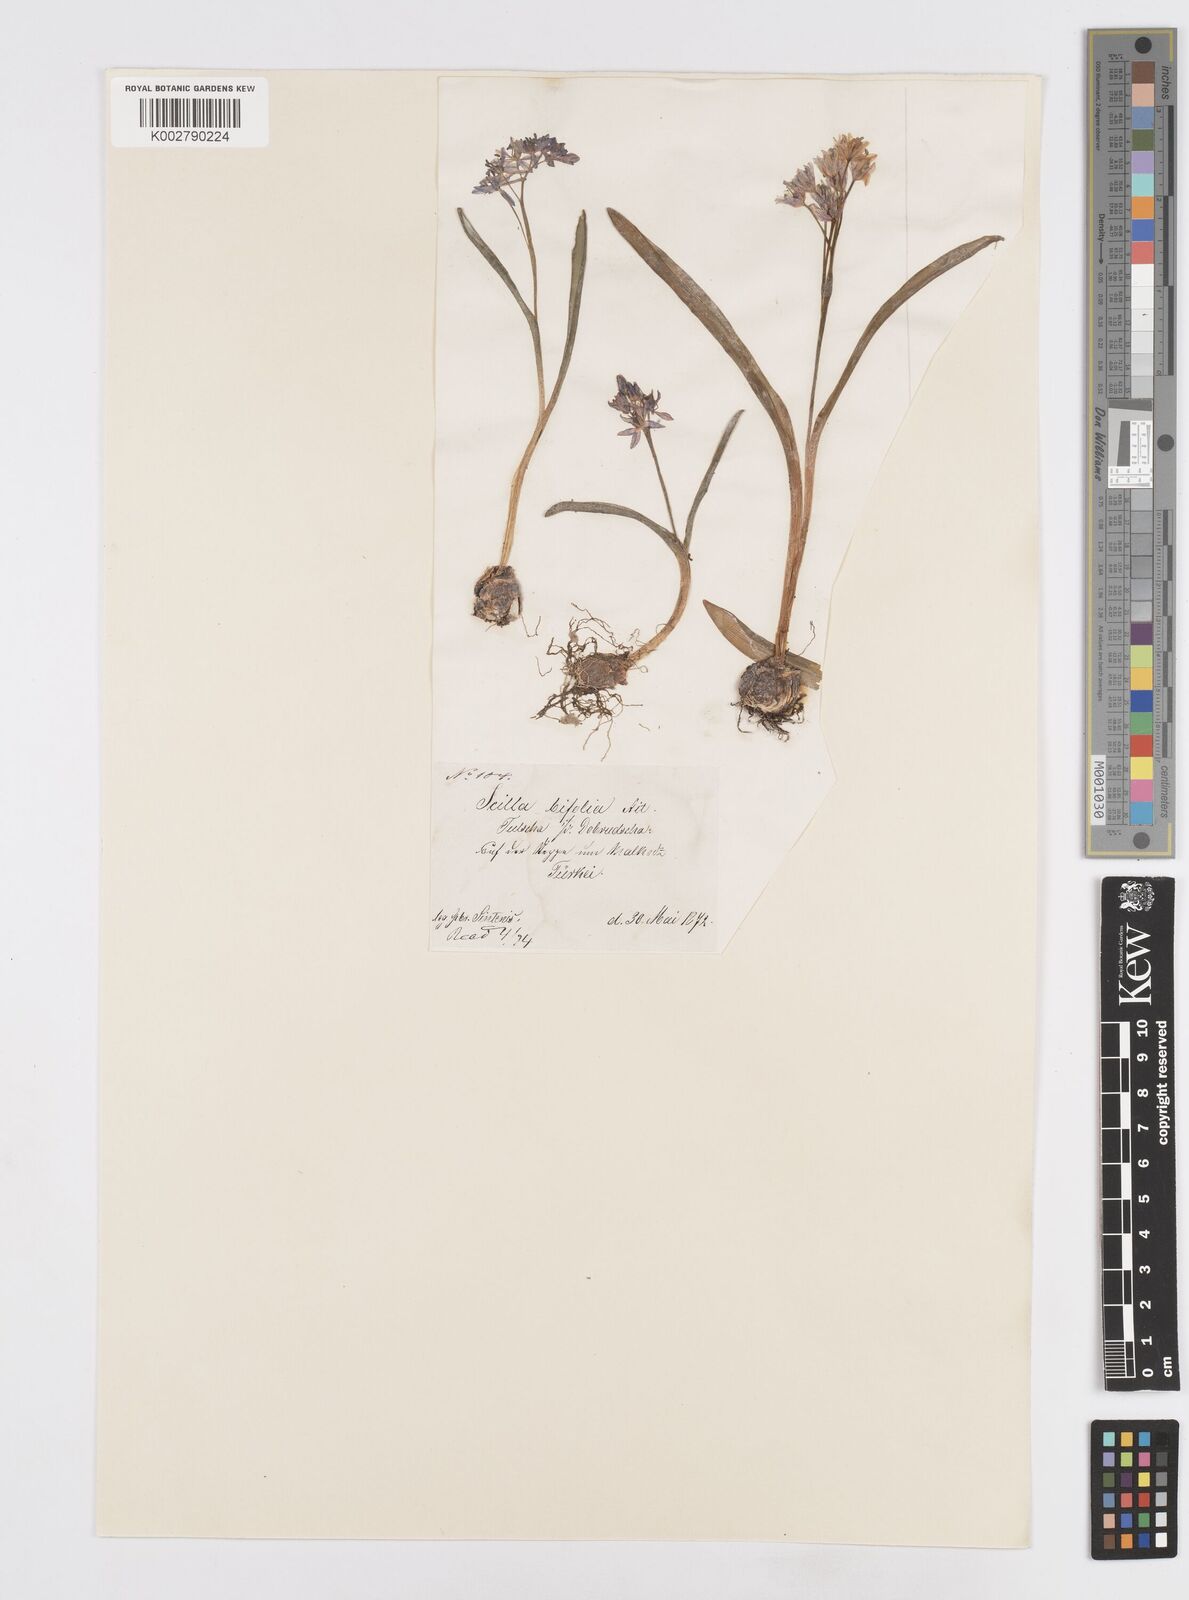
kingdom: Plantae
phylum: Tracheophyta
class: Liliopsida
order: Asparagales
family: Asparagaceae
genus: Scilla
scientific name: Scilla bifolia
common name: Alpine squill
